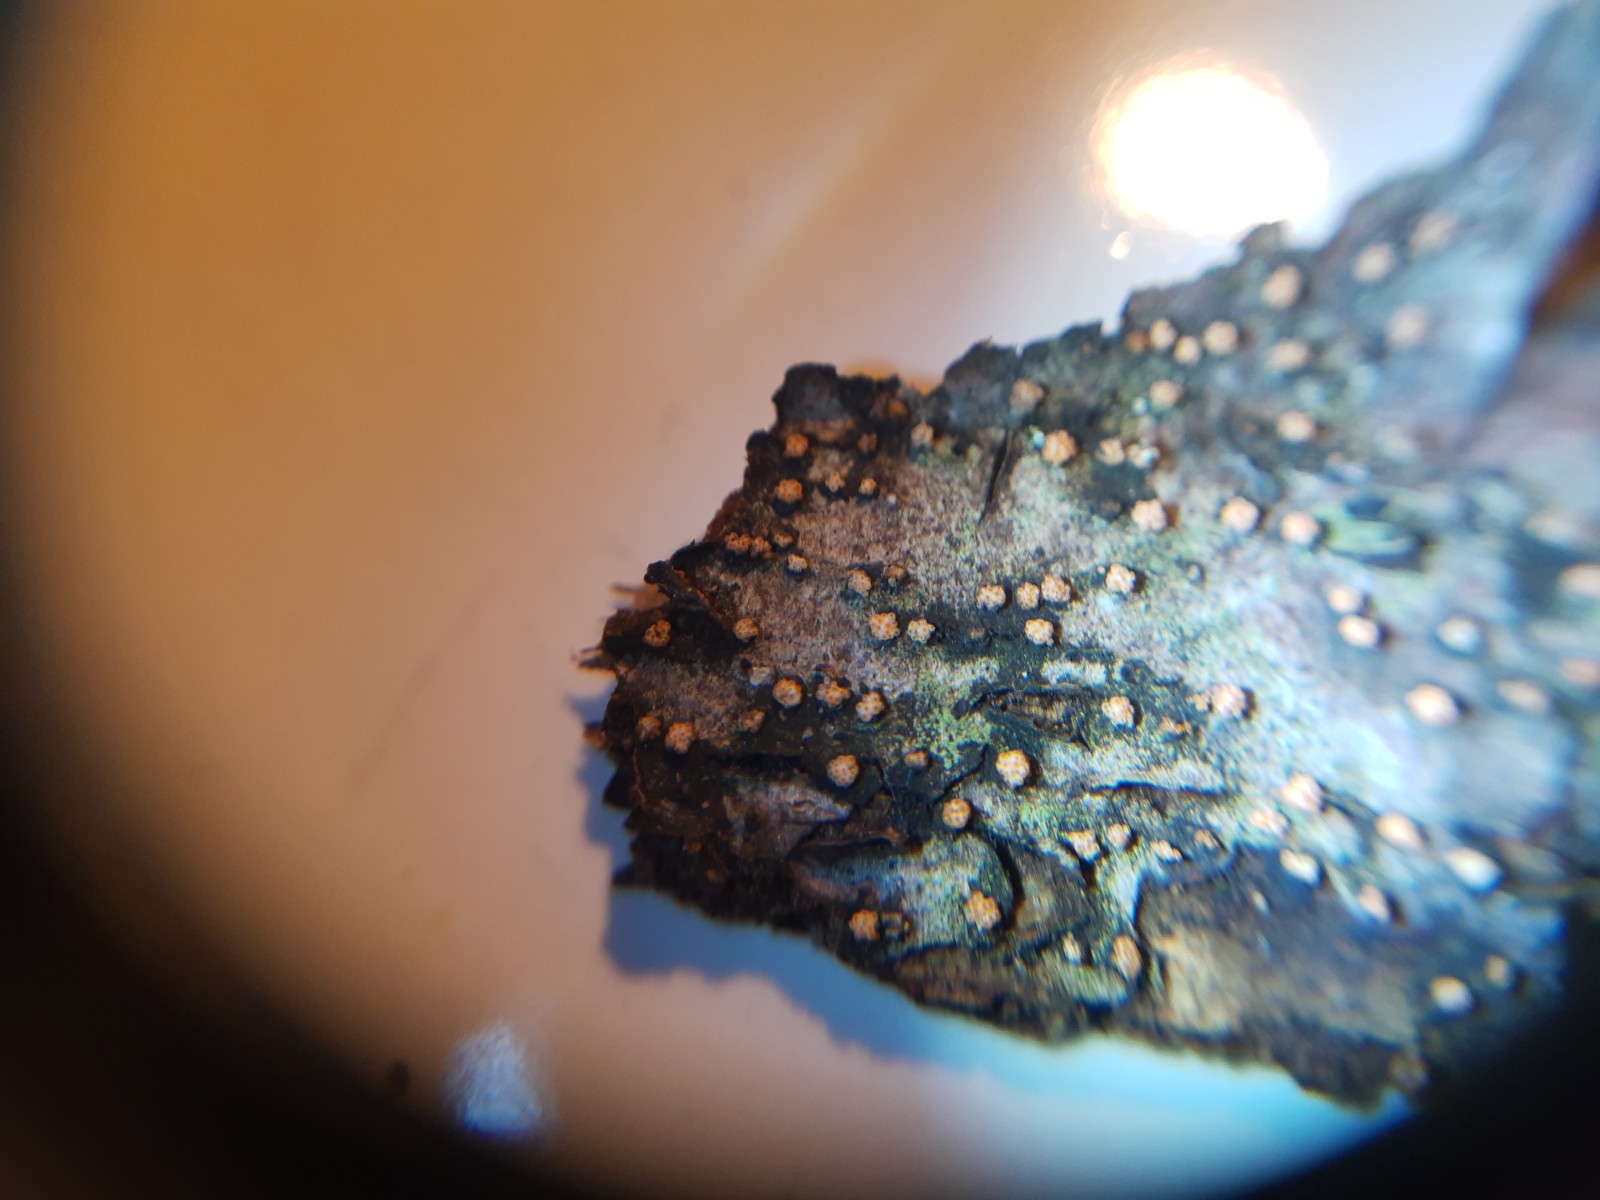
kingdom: Fungi
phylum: Ascomycota
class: Sordariomycetes
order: Hypocreales
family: Flammocladiellaceae
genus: Flammocladiella
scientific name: Flammocladiella decora
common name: kulvulkan-cinnobersvamp
